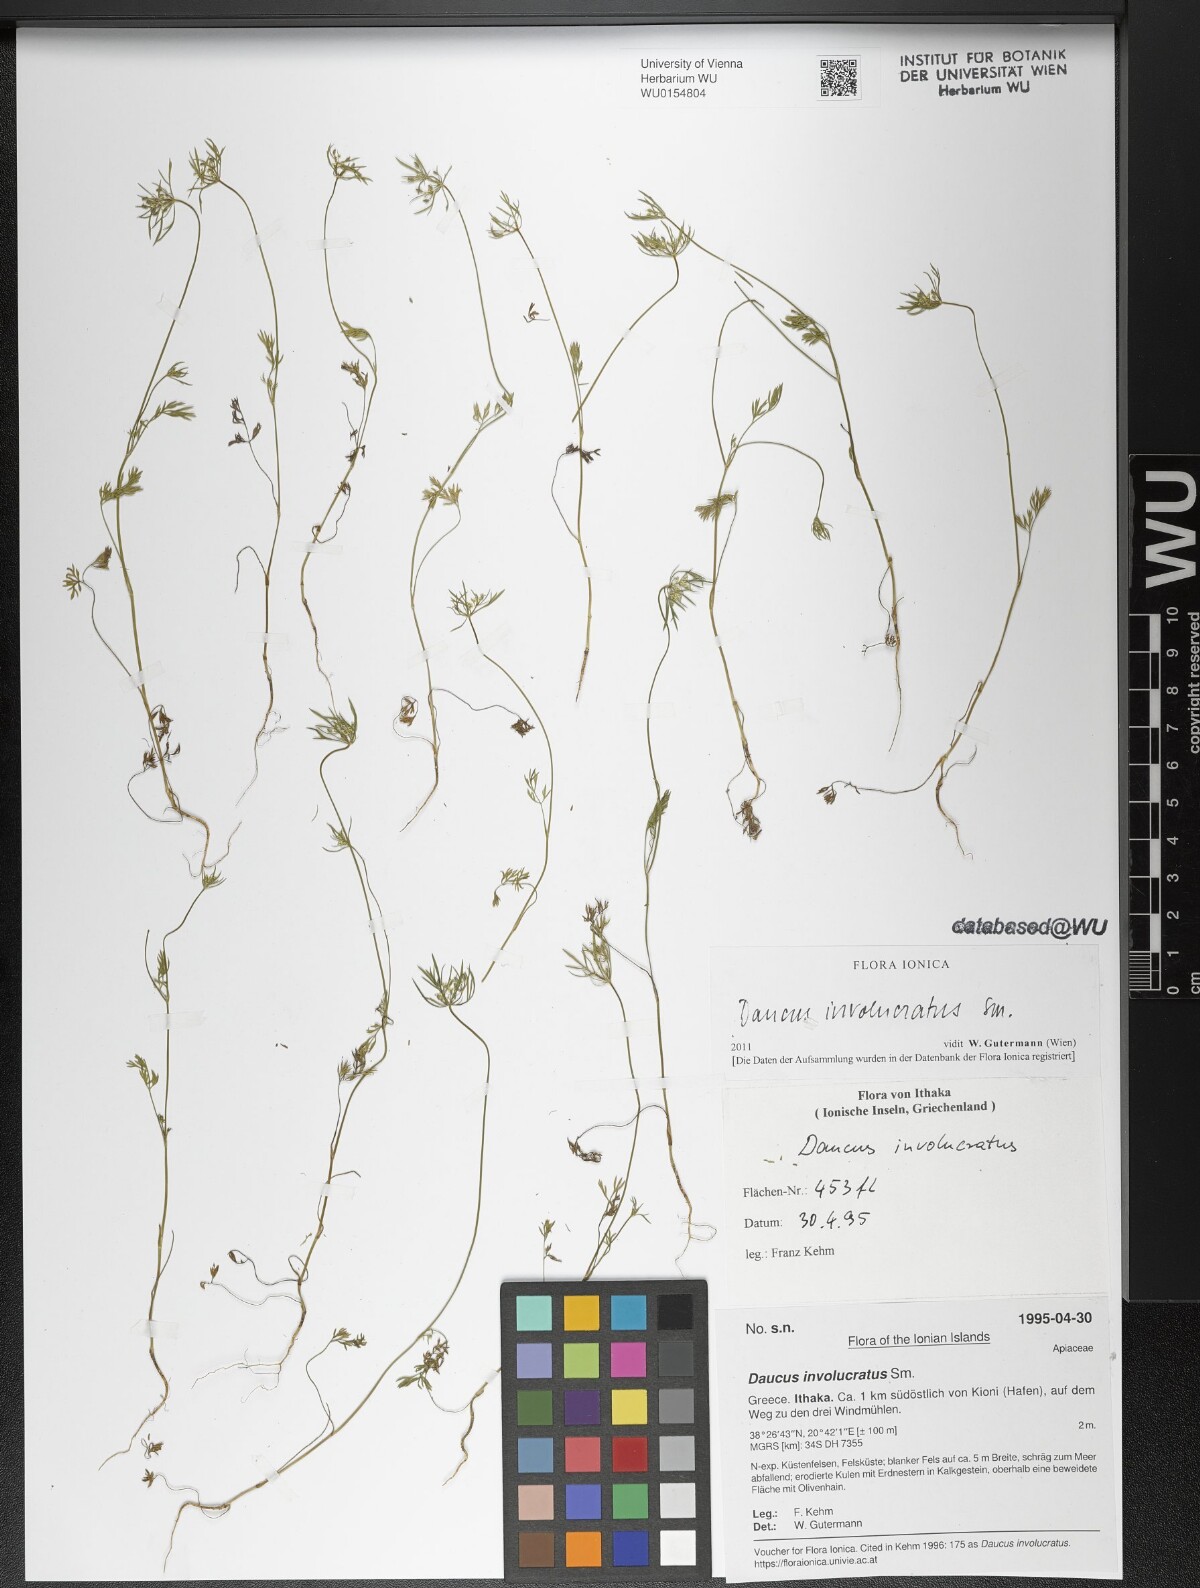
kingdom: Plantae
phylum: Tracheophyta
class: Magnoliopsida
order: Apiales
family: Apiaceae
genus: Daucus
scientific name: Daucus involucratus
